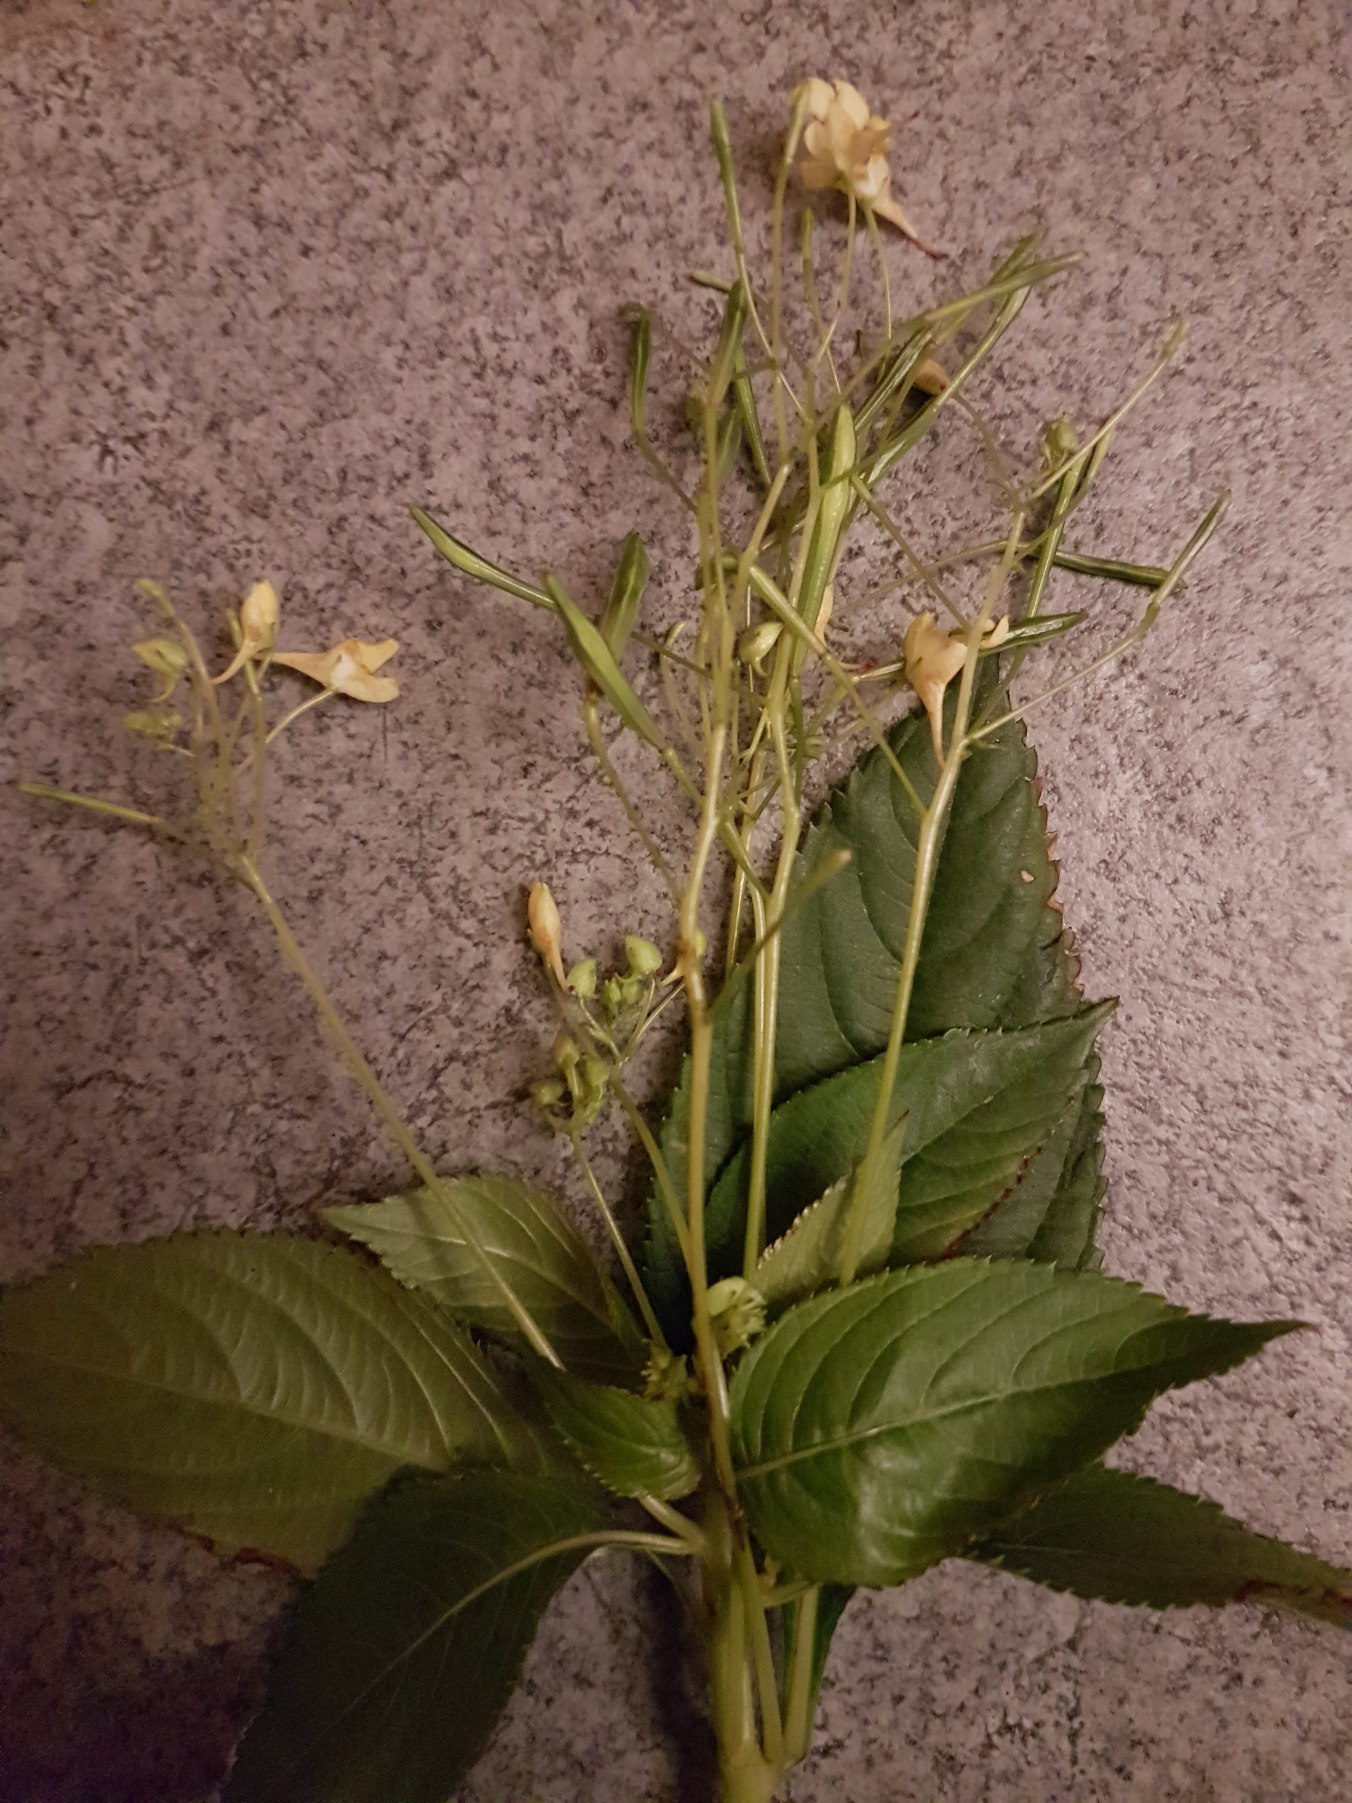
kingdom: Plantae
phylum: Tracheophyta
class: Magnoliopsida
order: Ericales
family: Balsaminaceae
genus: Impatiens
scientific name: Impatiens parviflora
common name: Småblomstret balsamin
